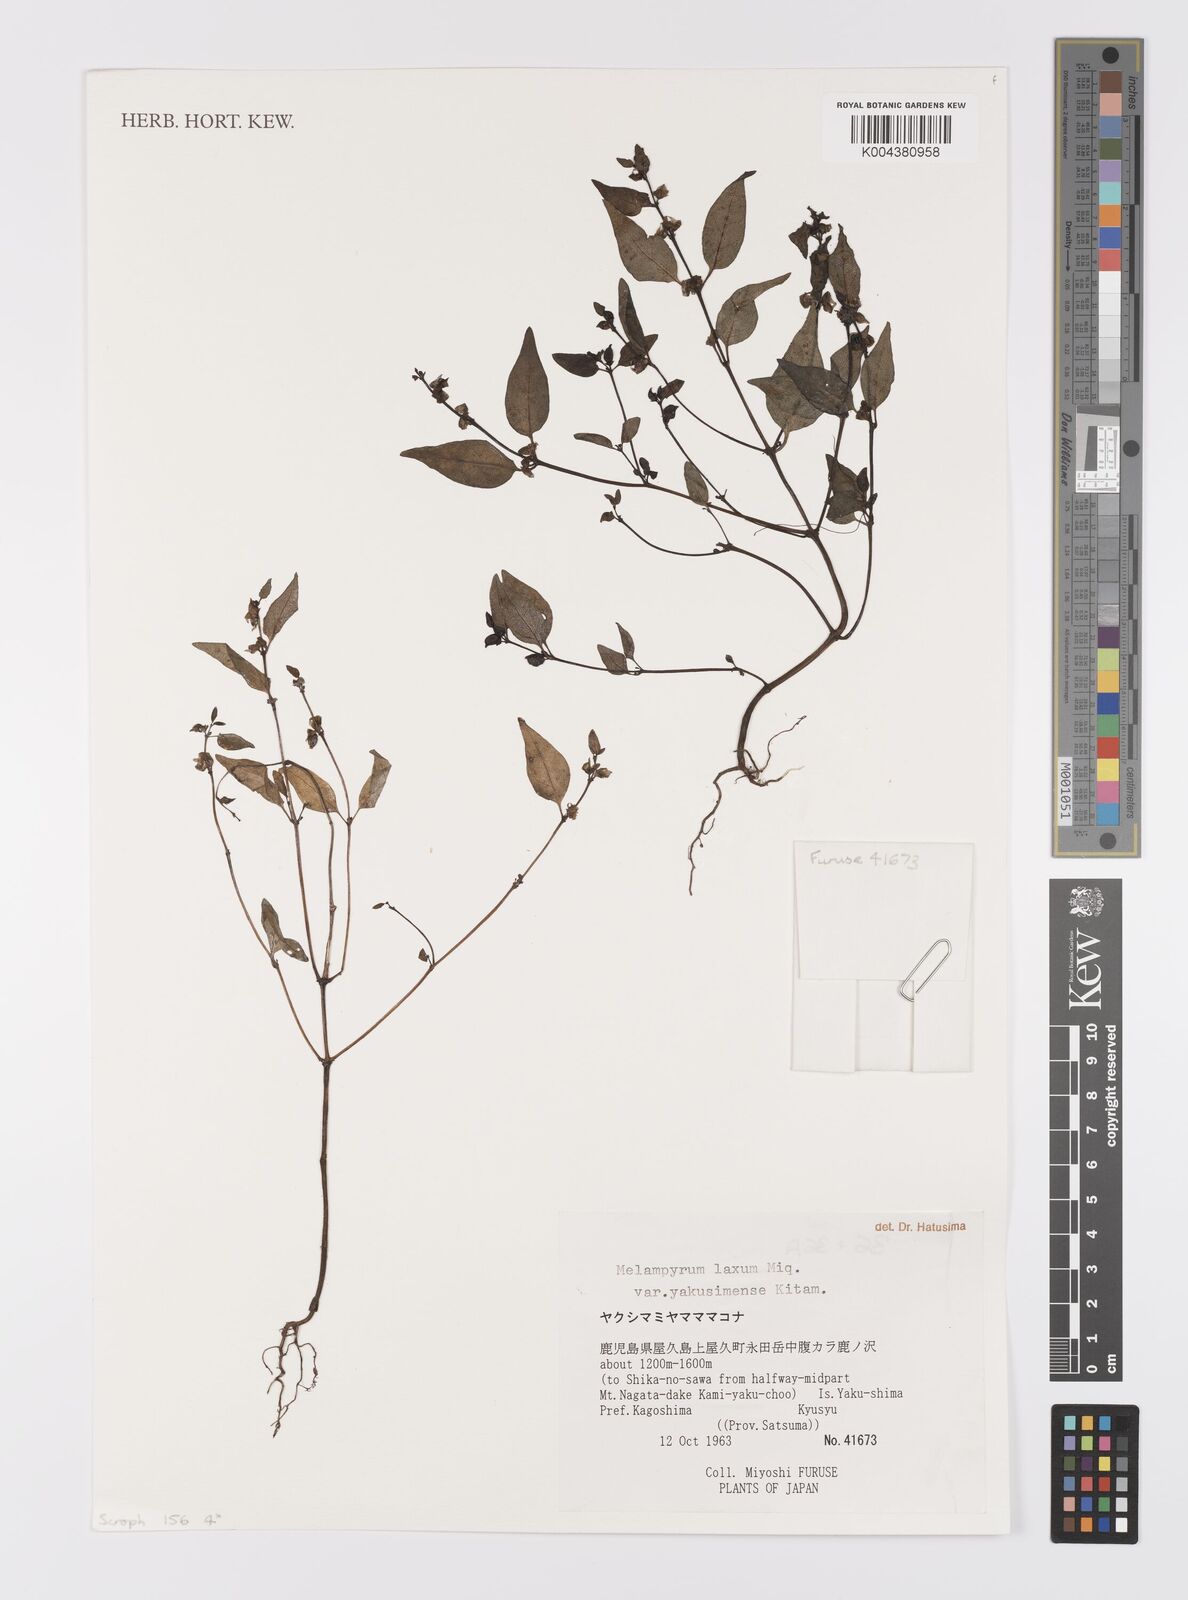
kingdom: Plantae
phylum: Tracheophyta
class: Magnoliopsida
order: Lamiales
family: Orobanchaceae
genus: Melampyrum
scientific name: Melampyrum laxum
